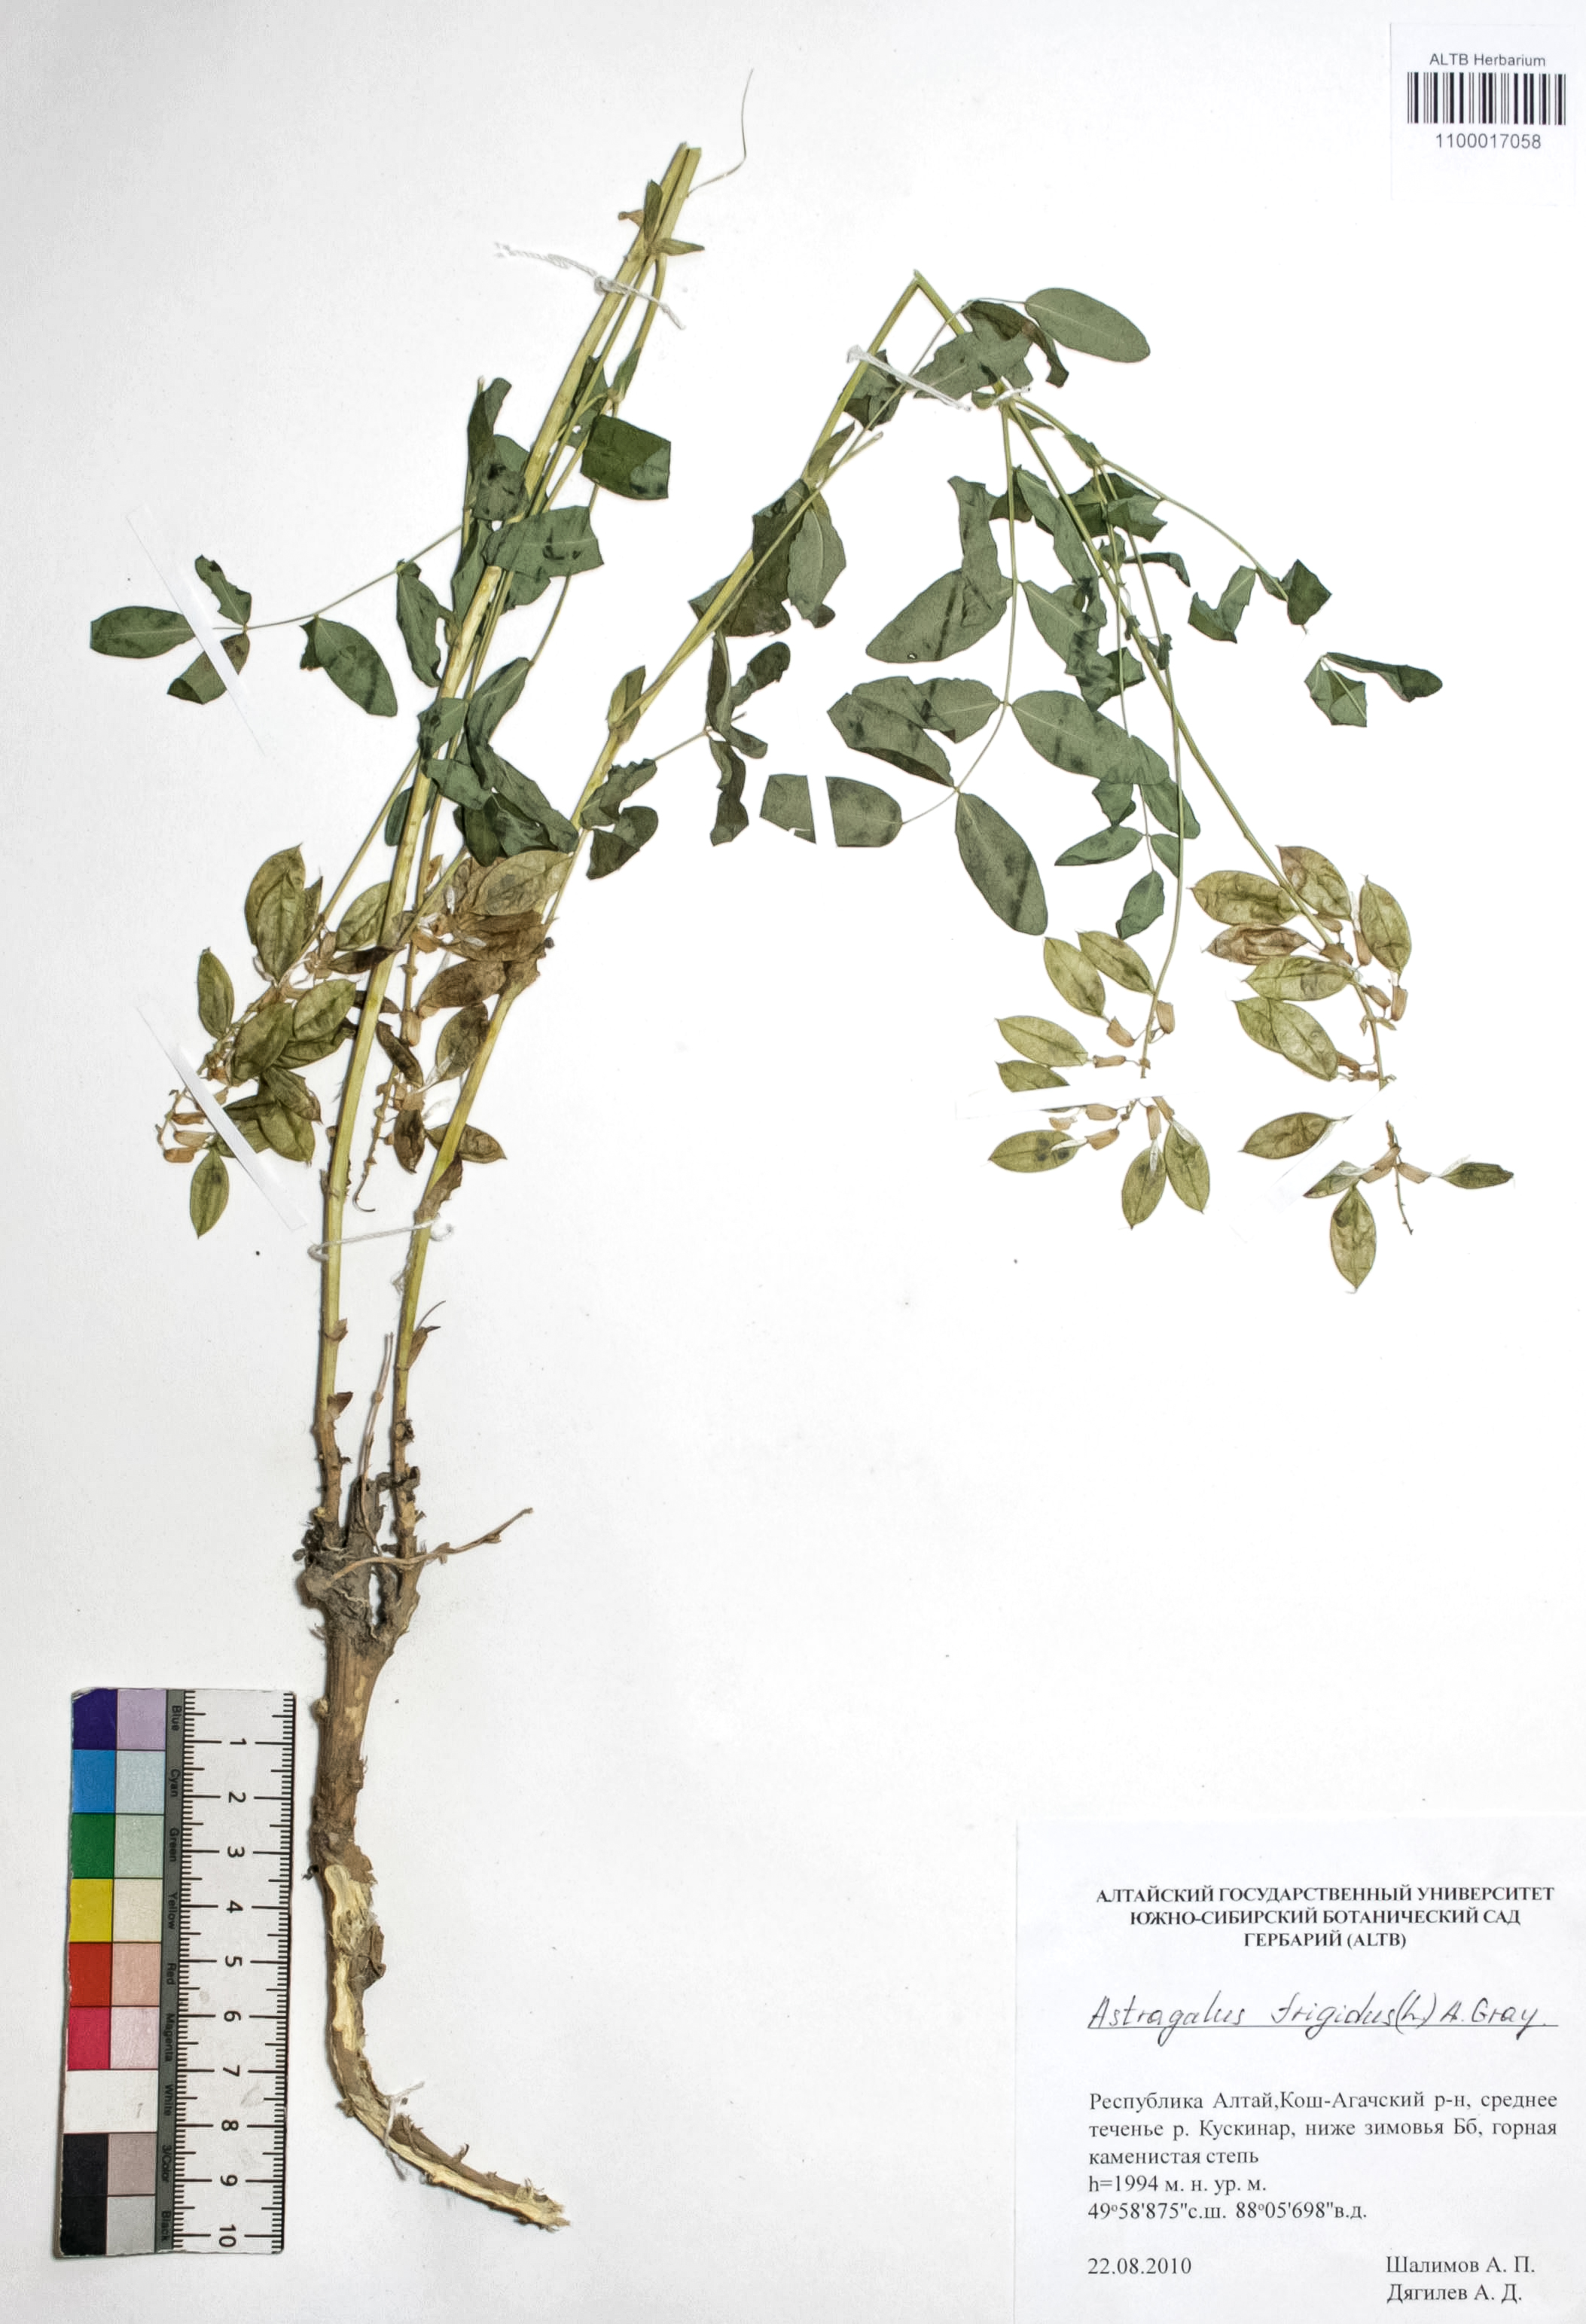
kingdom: Plantae
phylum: Tracheophyta
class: Magnoliopsida
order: Fabales
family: Fabaceae
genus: Astragalus
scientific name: Astragalus frigidus
